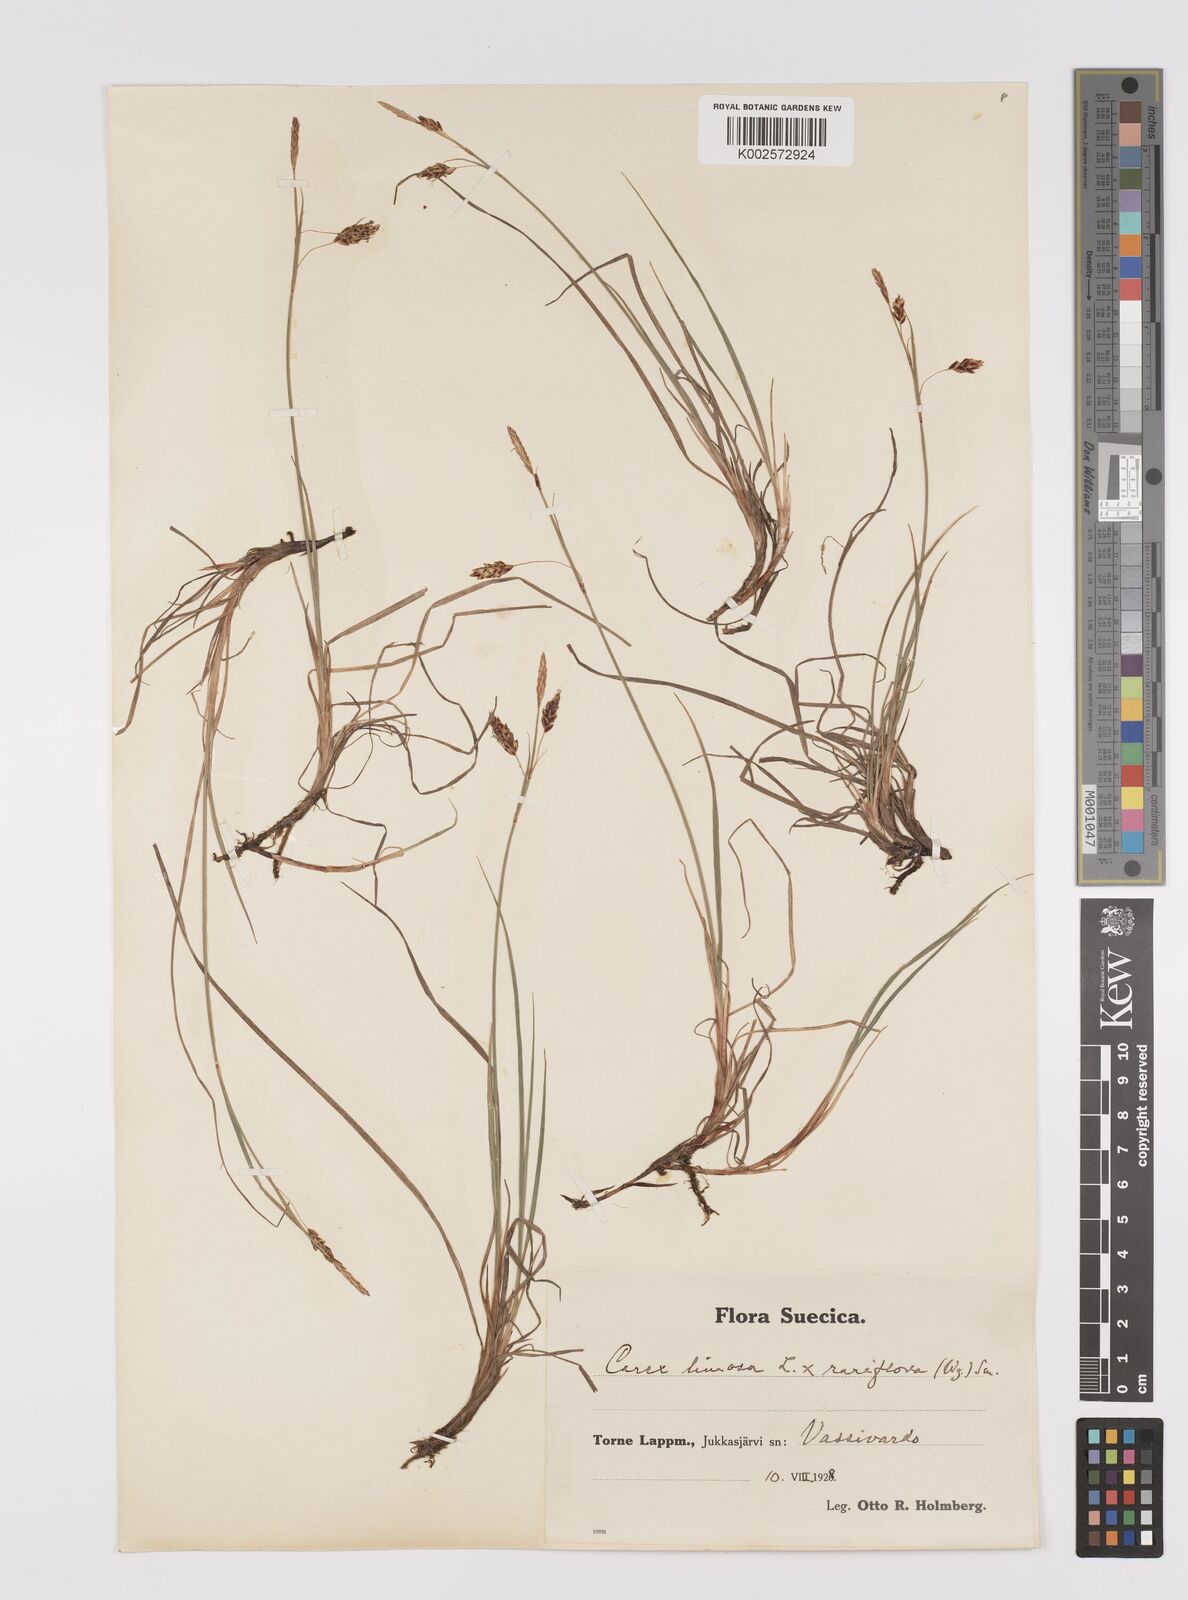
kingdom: Plantae
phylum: Tracheophyta
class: Liliopsida
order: Poales
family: Cyperaceae
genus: Carex
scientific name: Carex rariflora
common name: Loose-flowered alpine sedge
